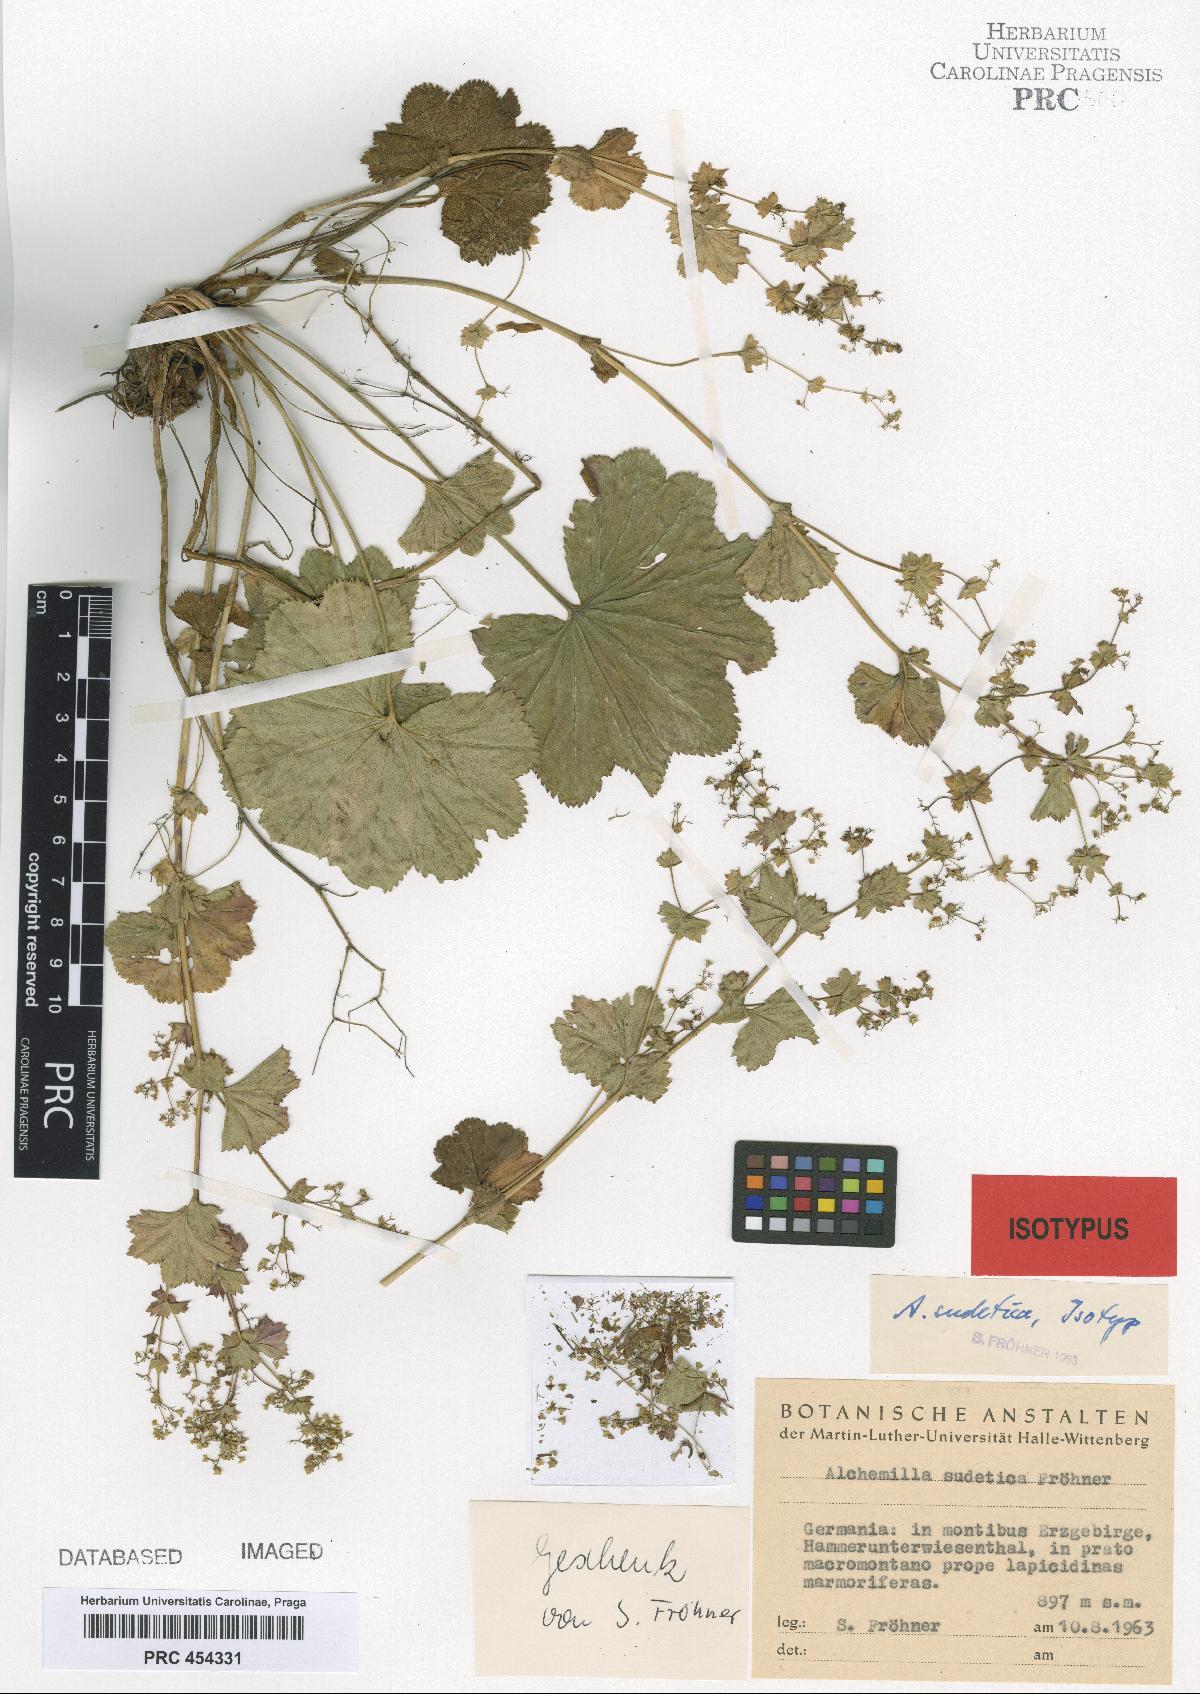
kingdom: Plantae
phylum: Tracheophyta
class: Magnoliopsida
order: Rosales
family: Rosaceae
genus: Alchemilla
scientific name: Alchemilla reniformis
